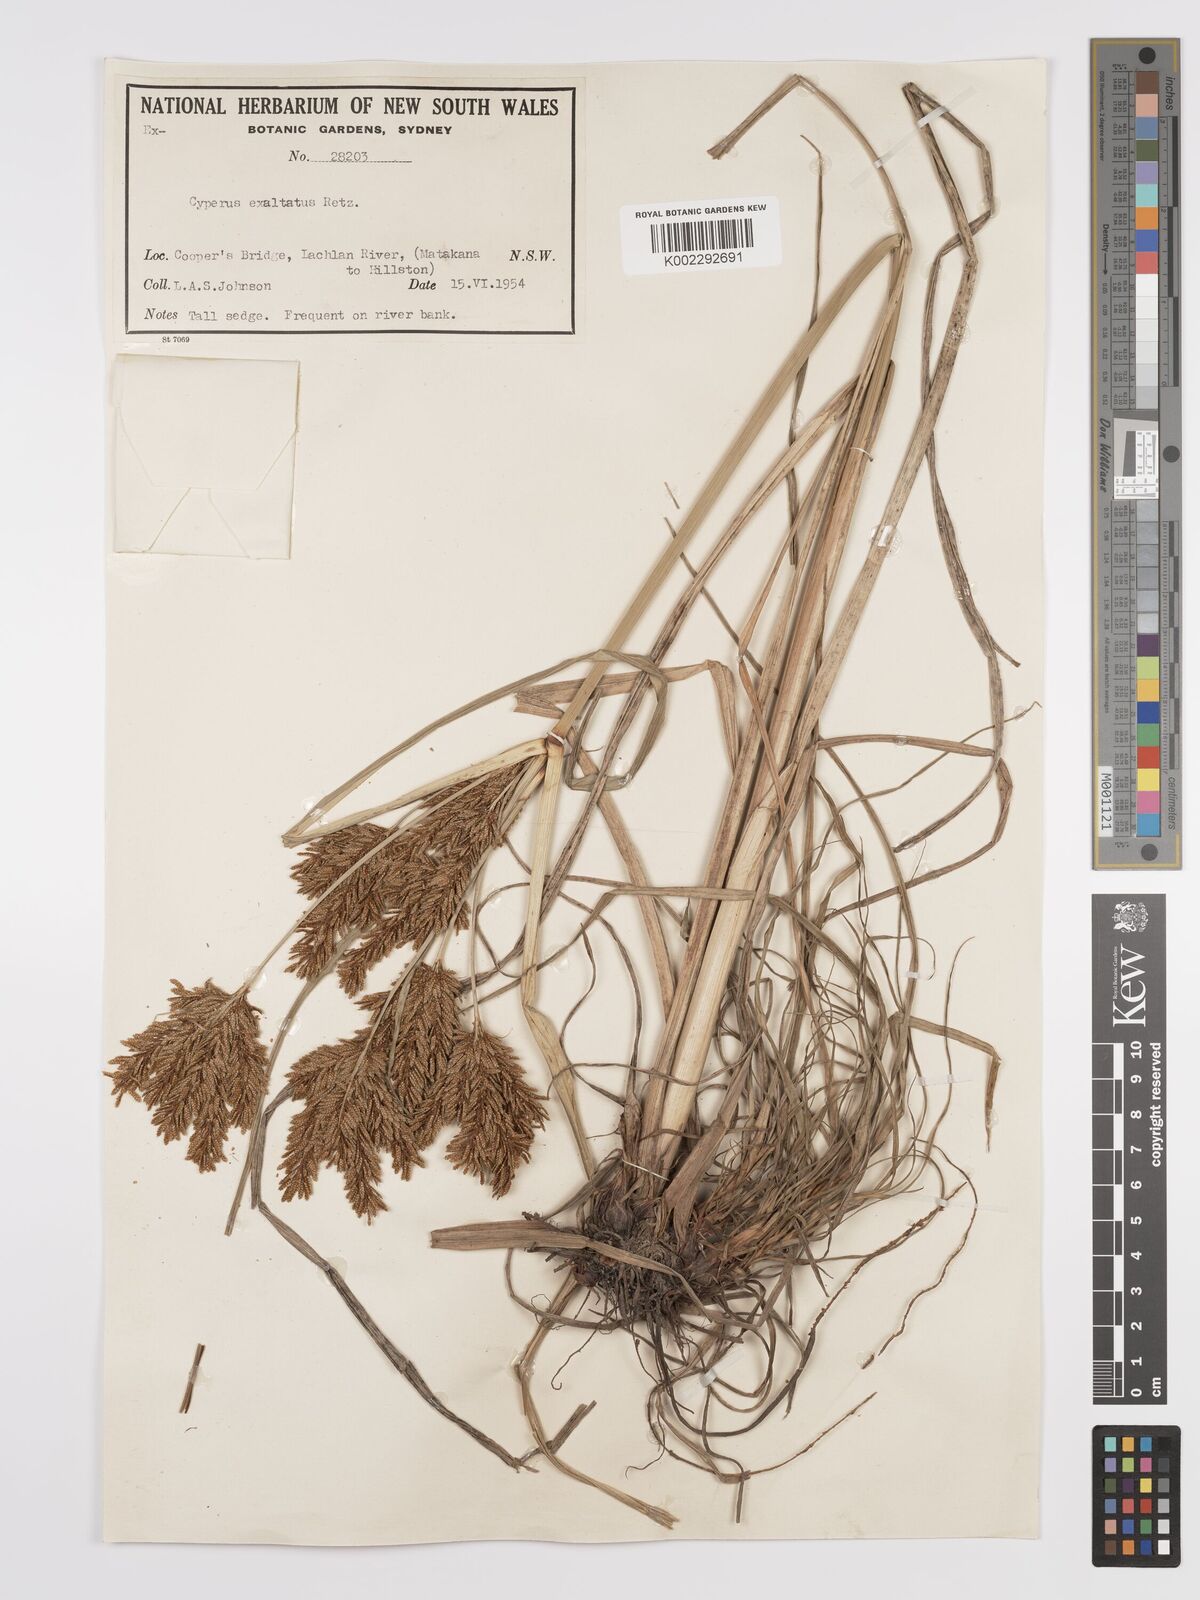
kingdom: Plantae
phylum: Tracheophyta
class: Liliopsida
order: Poales
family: Cyperaceae
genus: Cyperus
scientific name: Cyperus exaltatus
